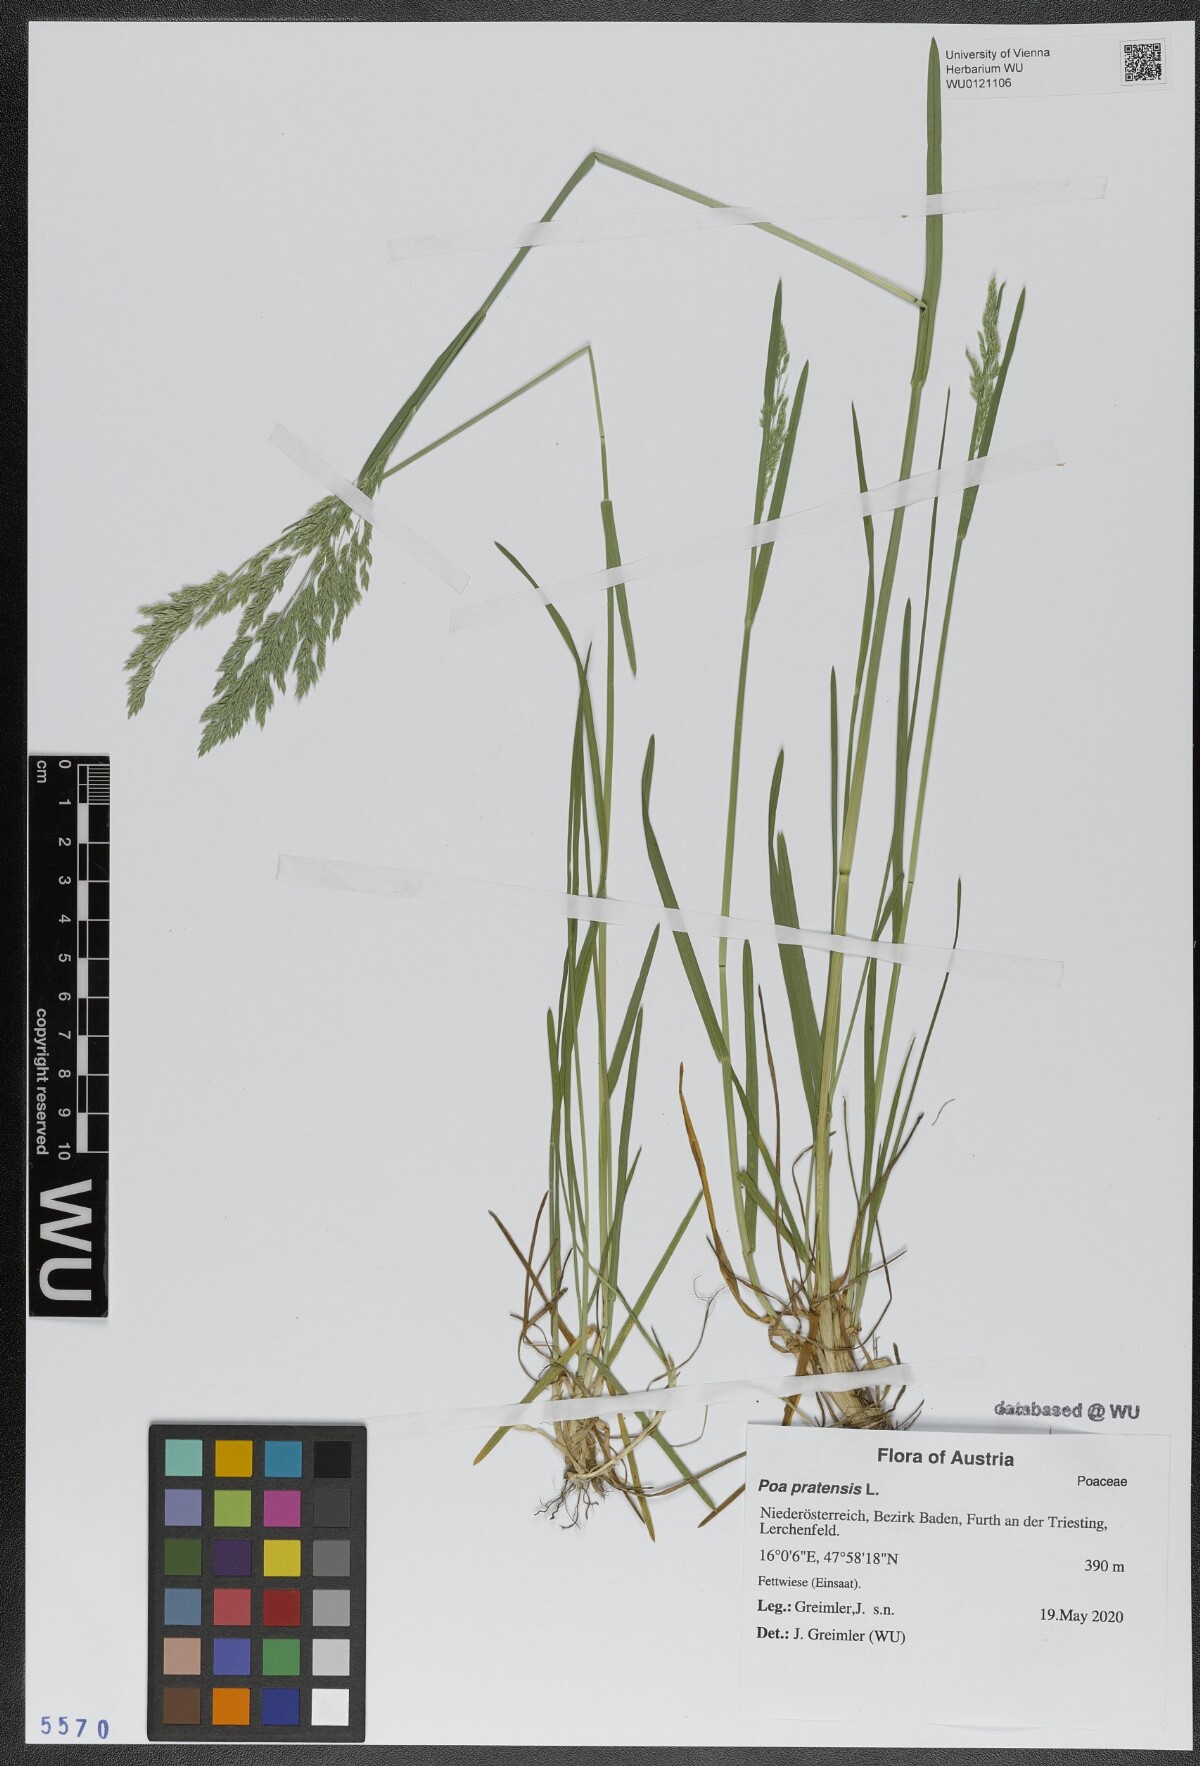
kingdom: Plantae
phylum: Tracheophyta
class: Liliopsida
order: Poales
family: Poaceae
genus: Poa
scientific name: Poa pratensis
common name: Kentucky bluegrass
